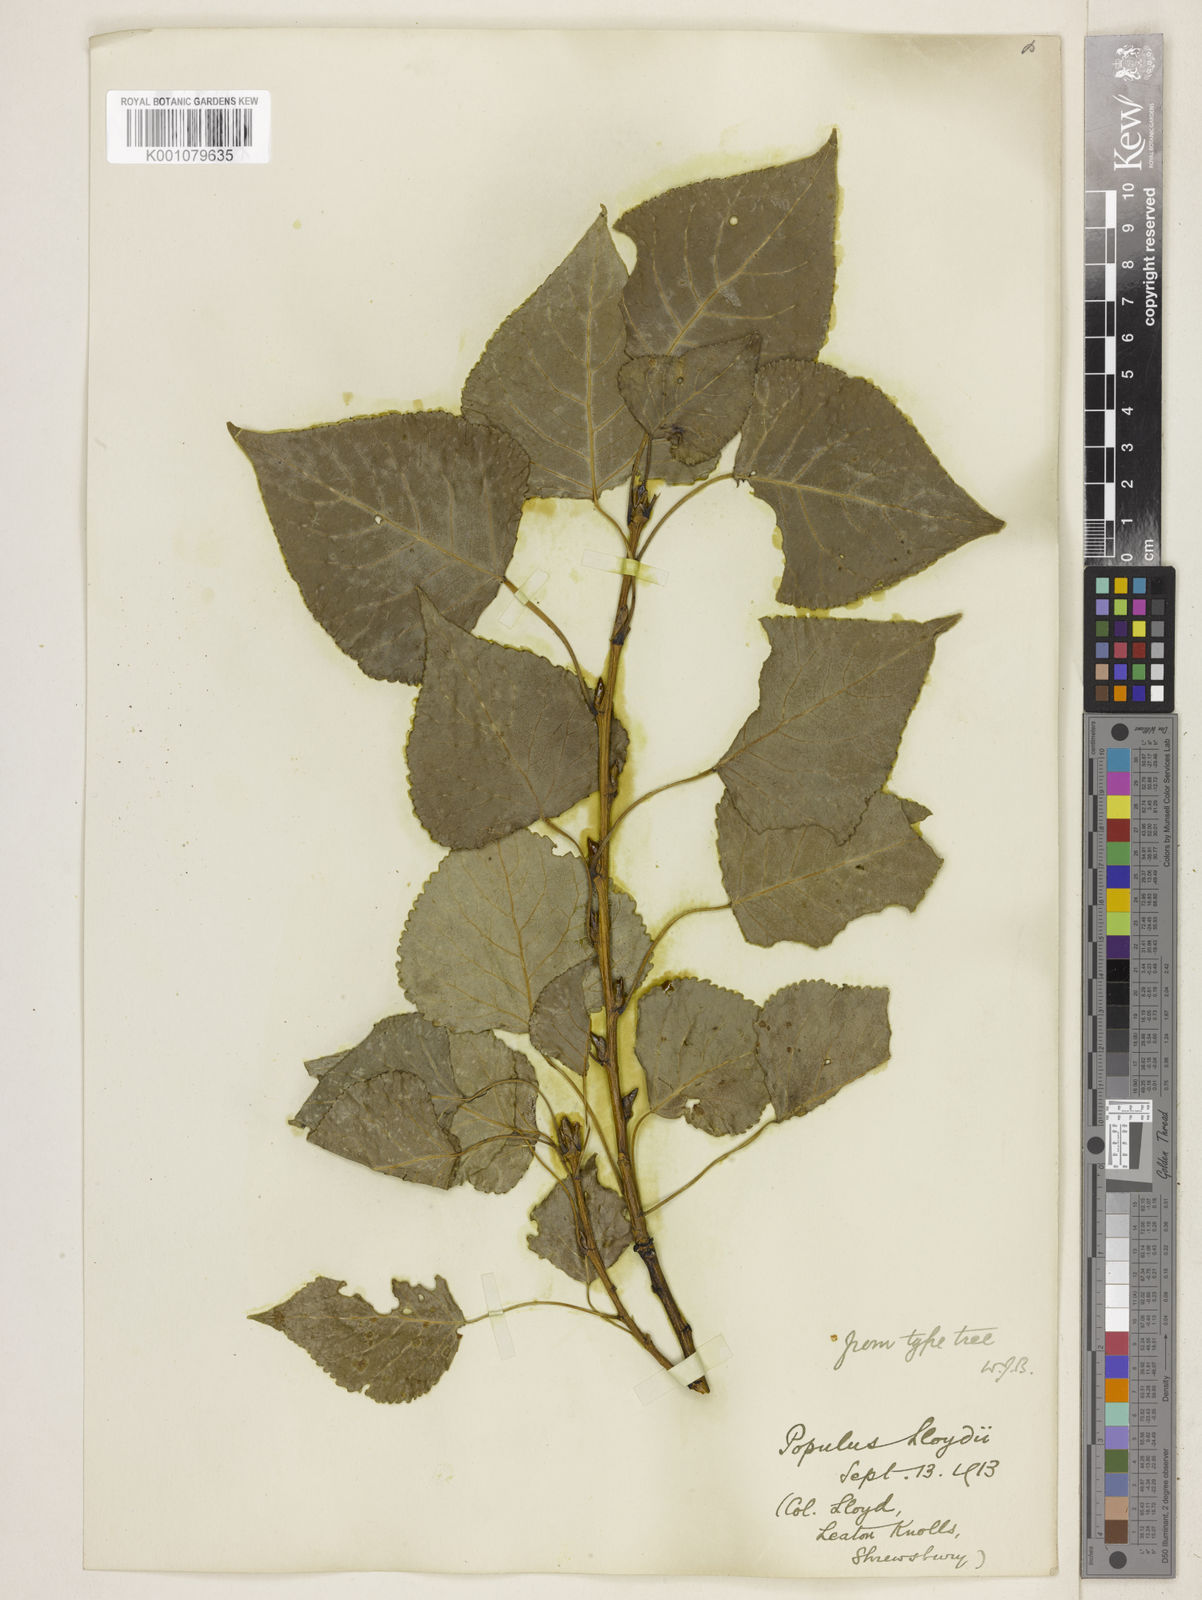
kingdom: Plantae
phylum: Tracheophyta
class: Magnoliopsida
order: Malpighiales
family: Salicaceae
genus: Populus
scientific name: Populus
